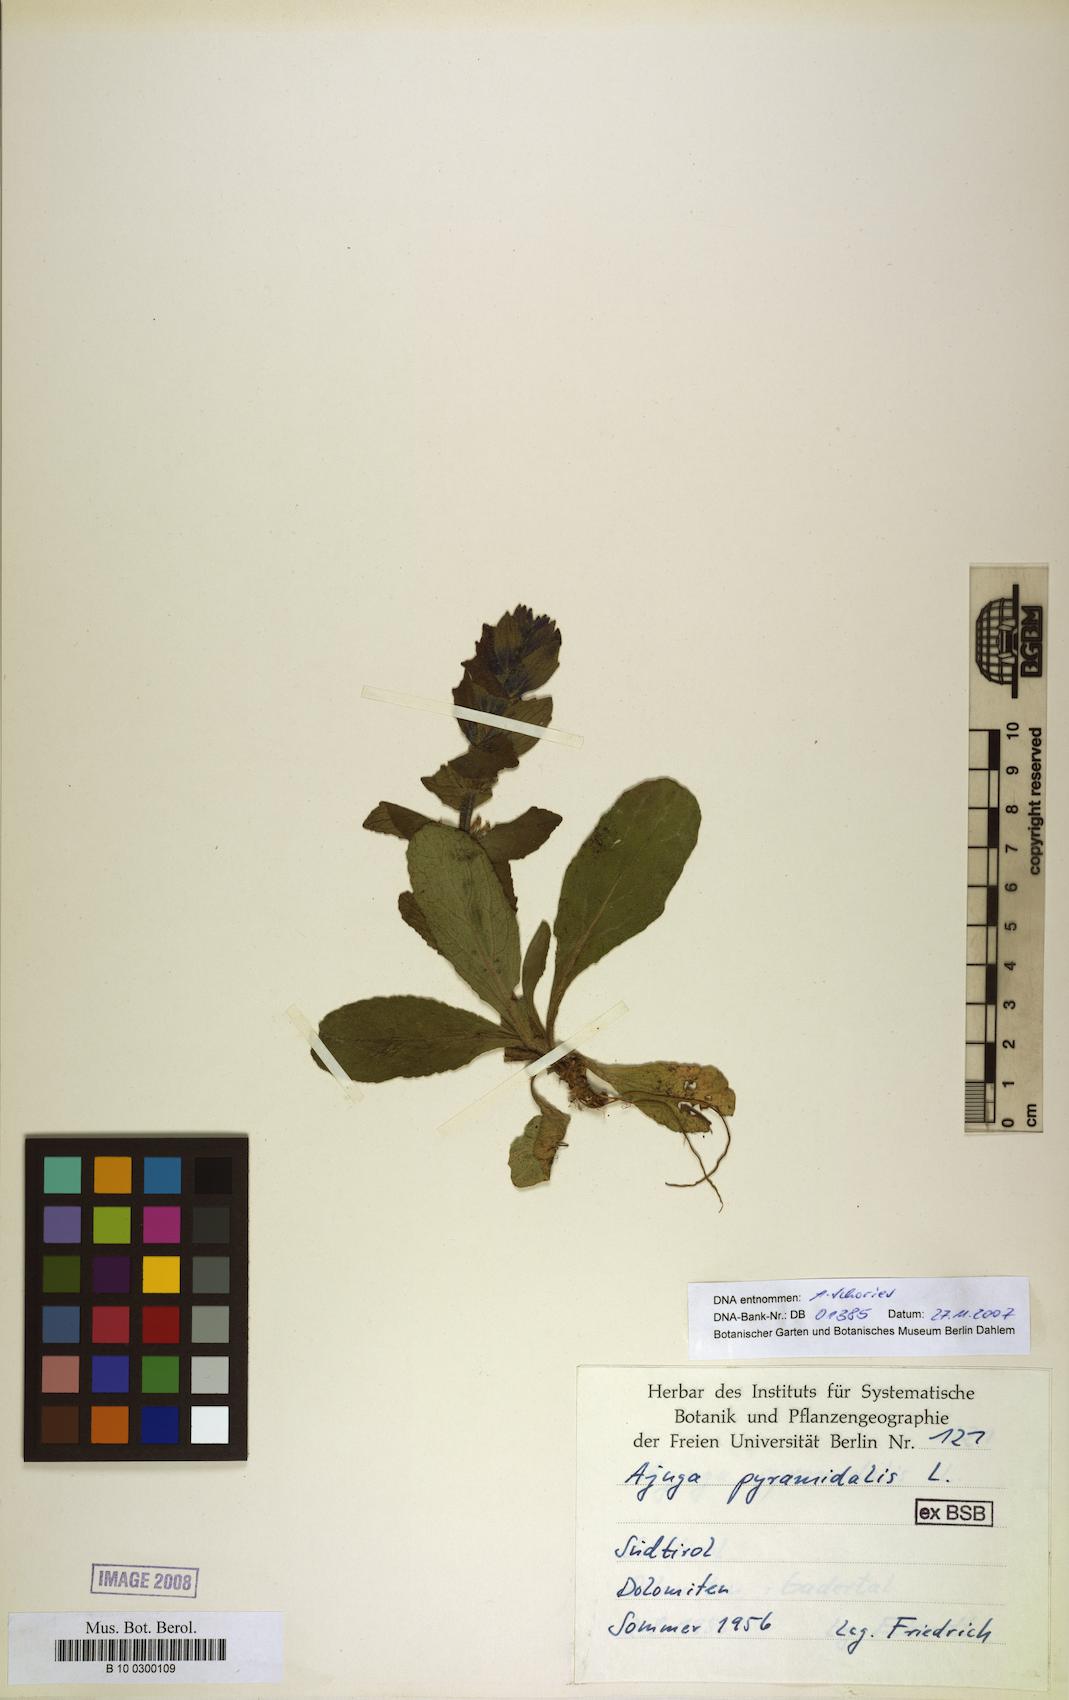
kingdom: Plantae
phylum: Tracheophyta
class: Magnoliopsida
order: Lamiales
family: Lamiaceae
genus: Ajuga
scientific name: Ajuga pyramidalis
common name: Pyramid bugle
